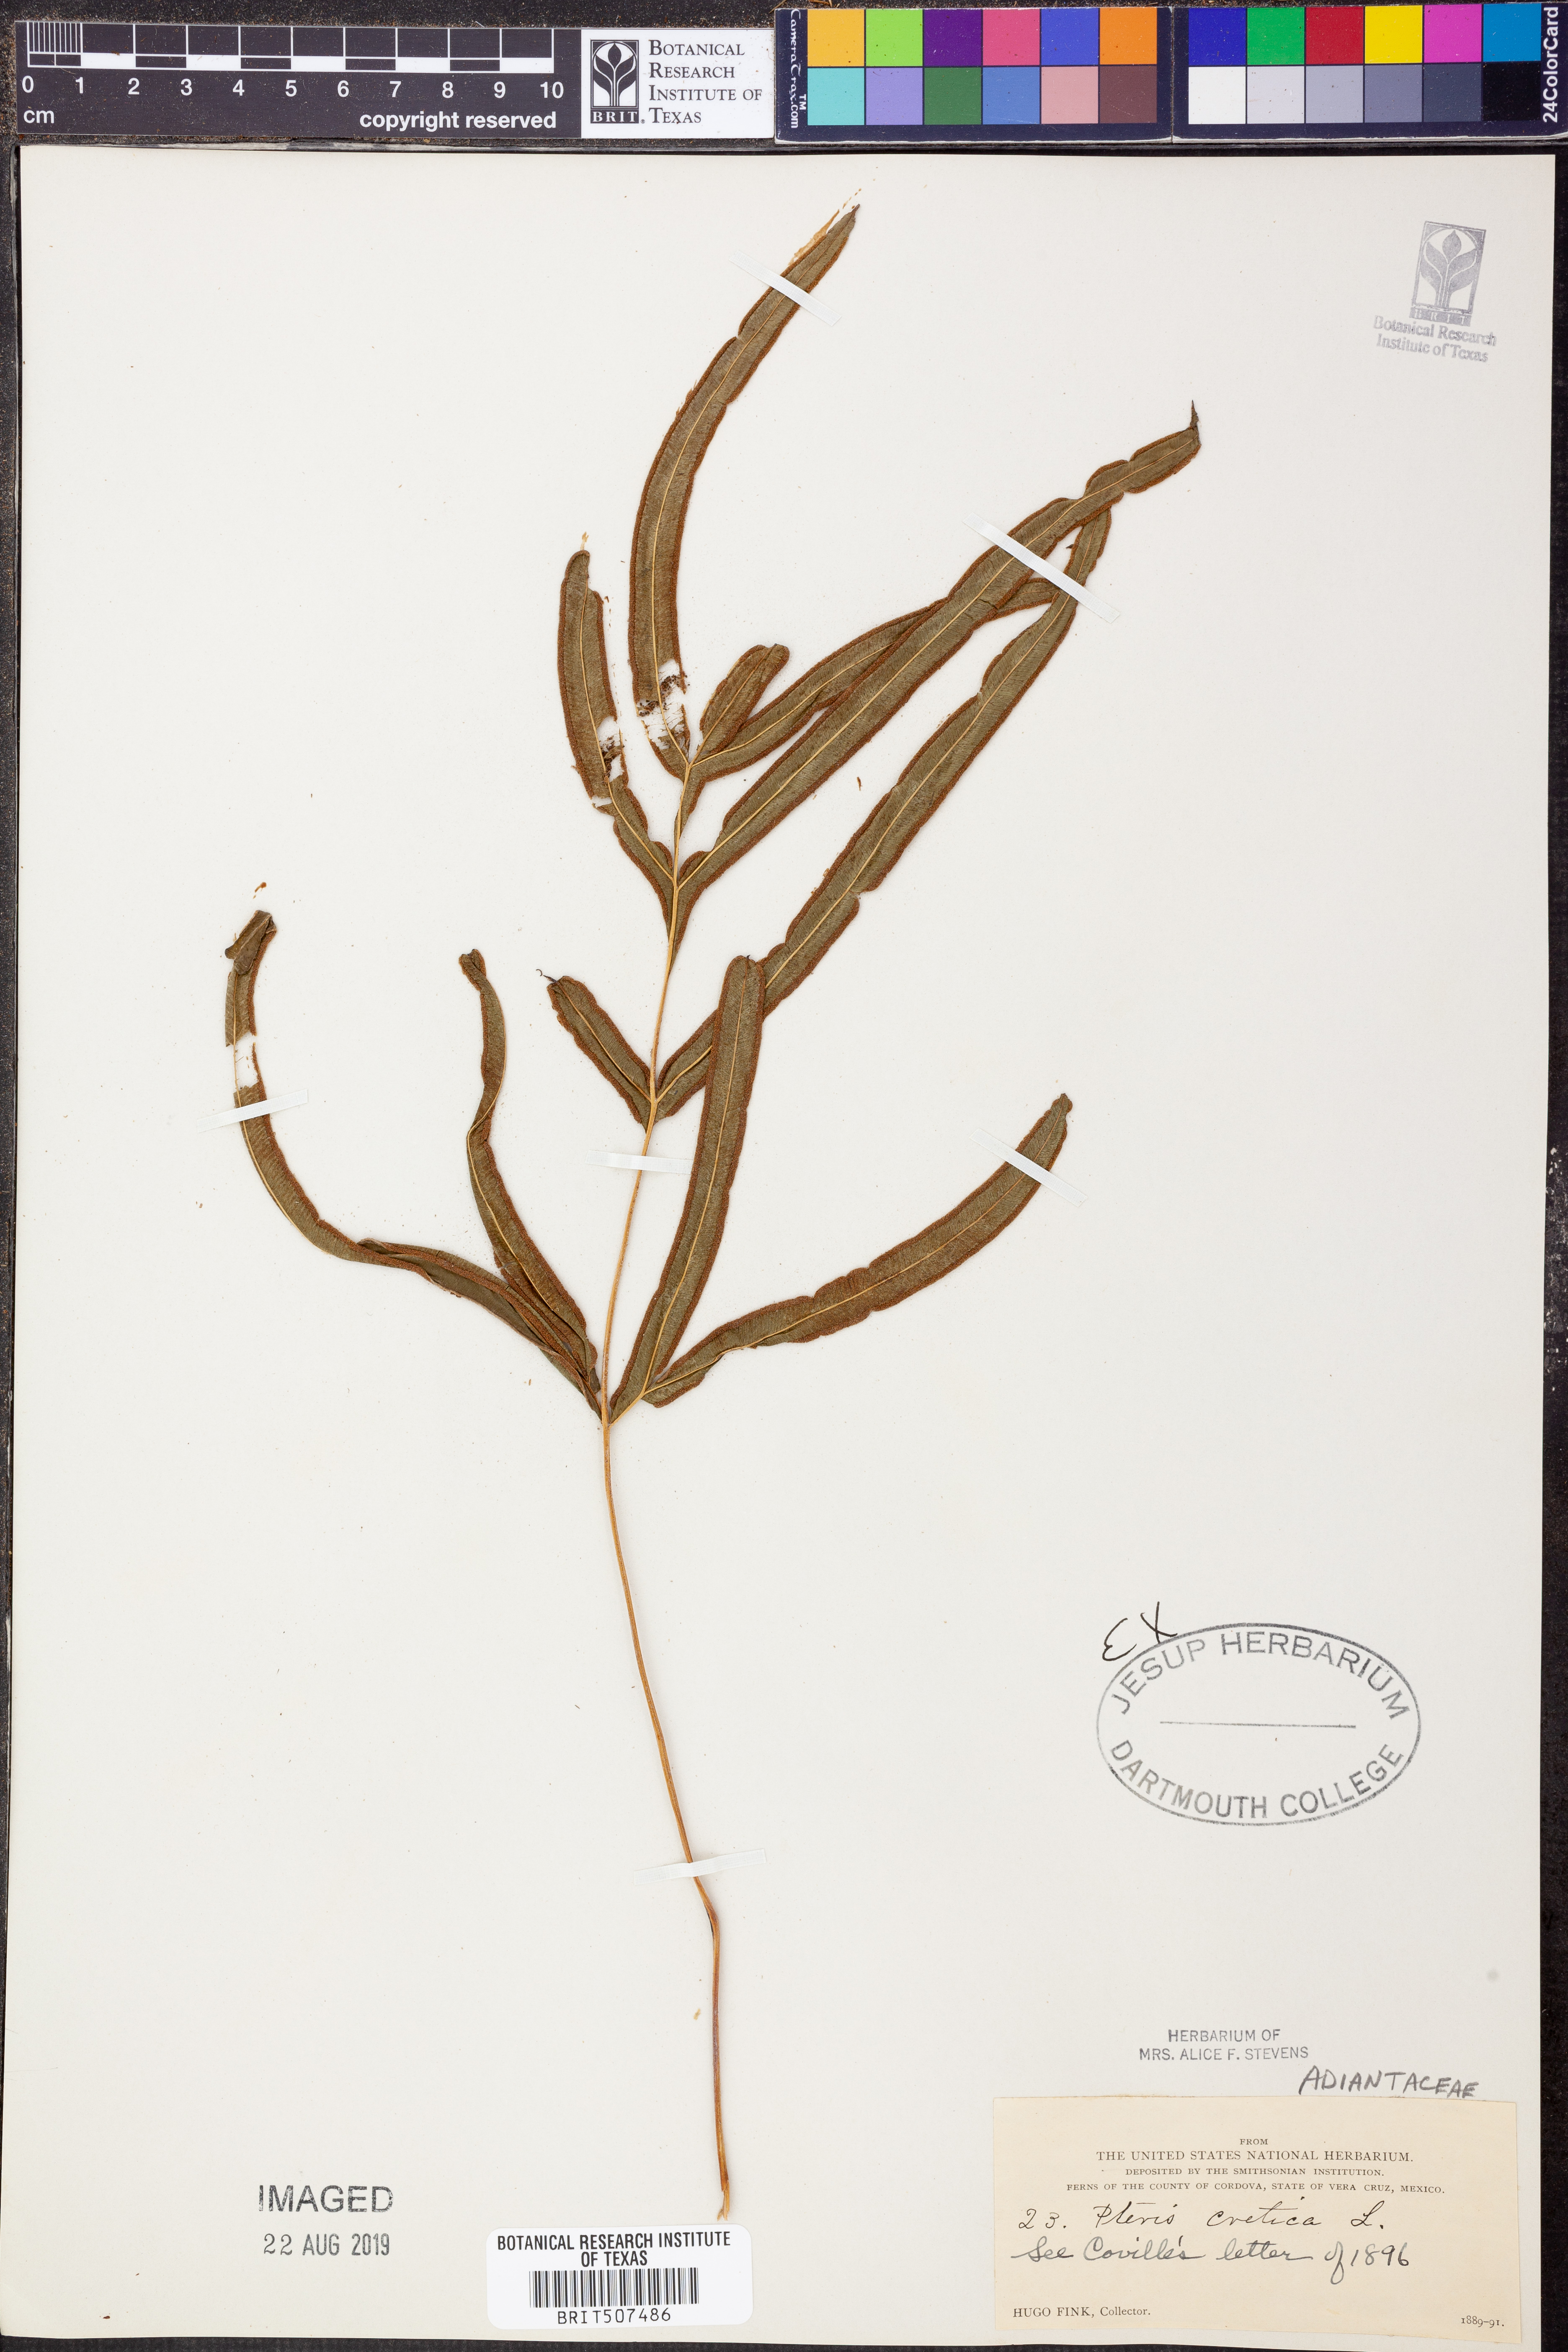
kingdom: Plantae
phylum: Tracheophyta
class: Polypodiopsida
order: Polypodiales
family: Pteridaceae
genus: Pteris
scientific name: Pteris cretica
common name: Ribbon fern
